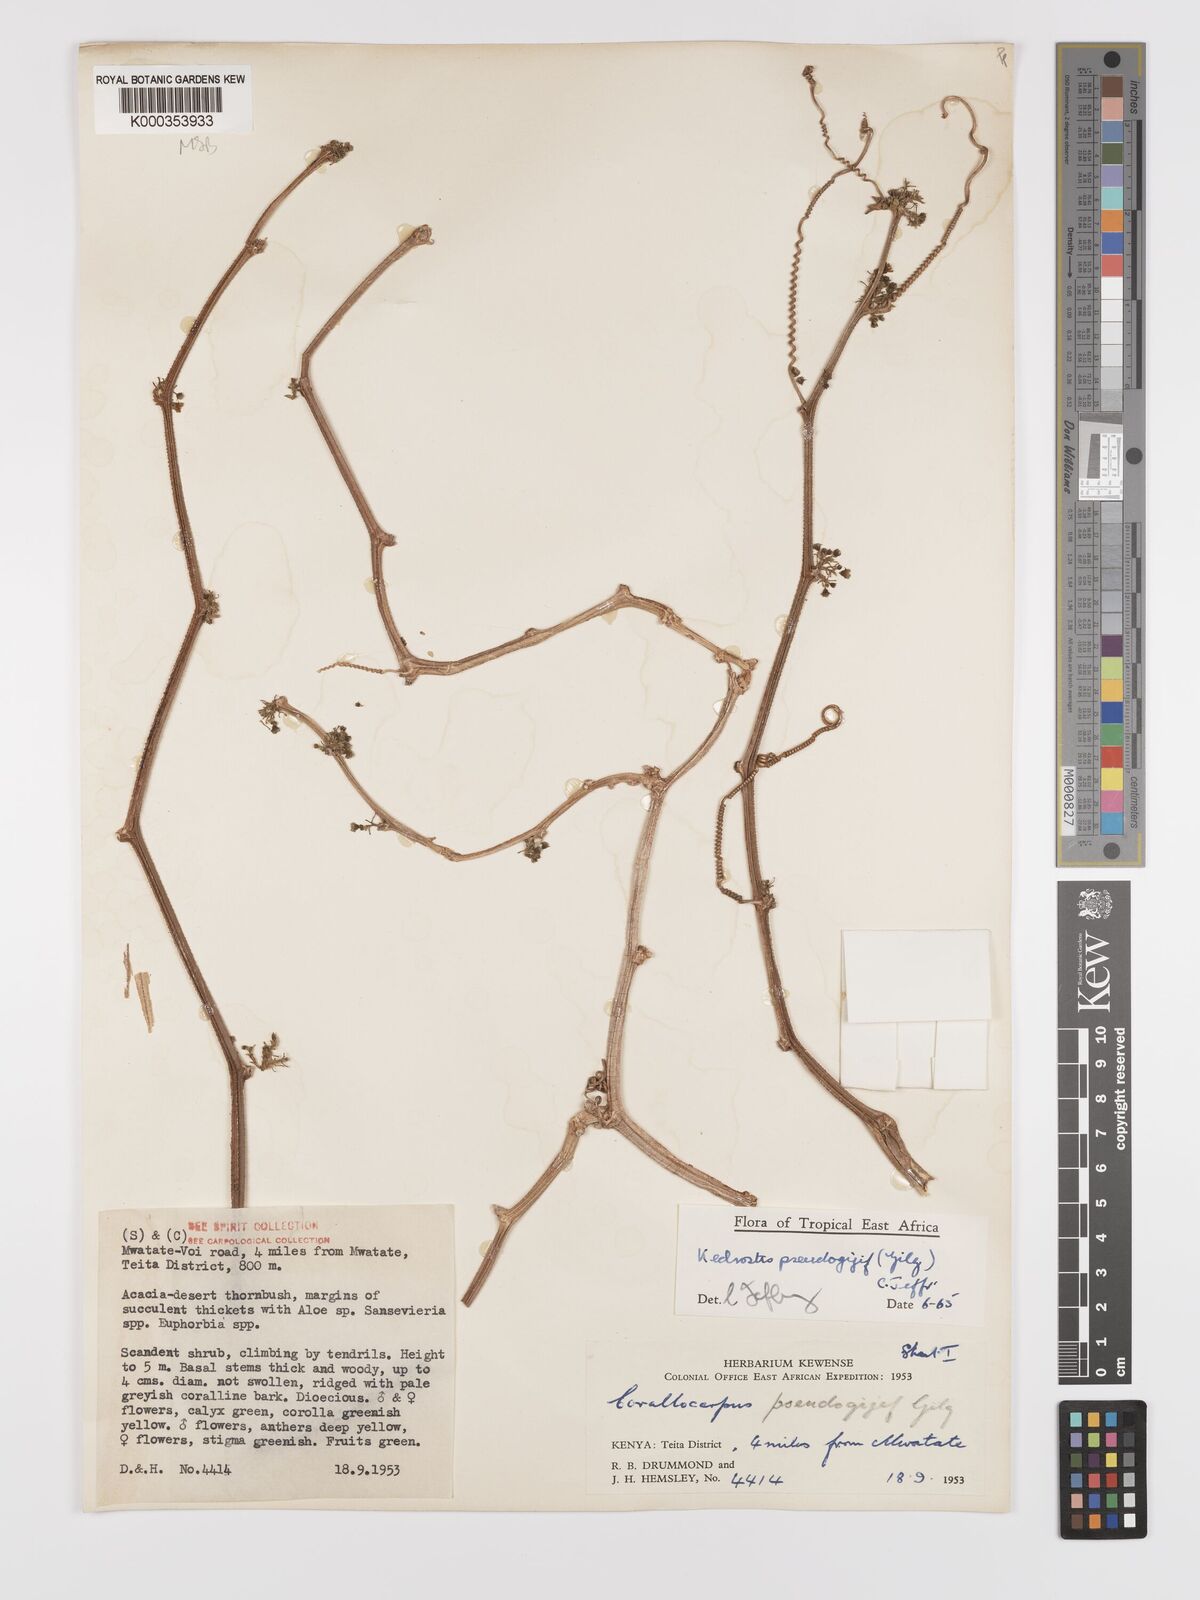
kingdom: Plantae
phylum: Tracheophyta
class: Magnoliopsida
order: Cucurbitales
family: Cucurbitaceae
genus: Kedrostis
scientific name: Kedrostis pseudogijef
